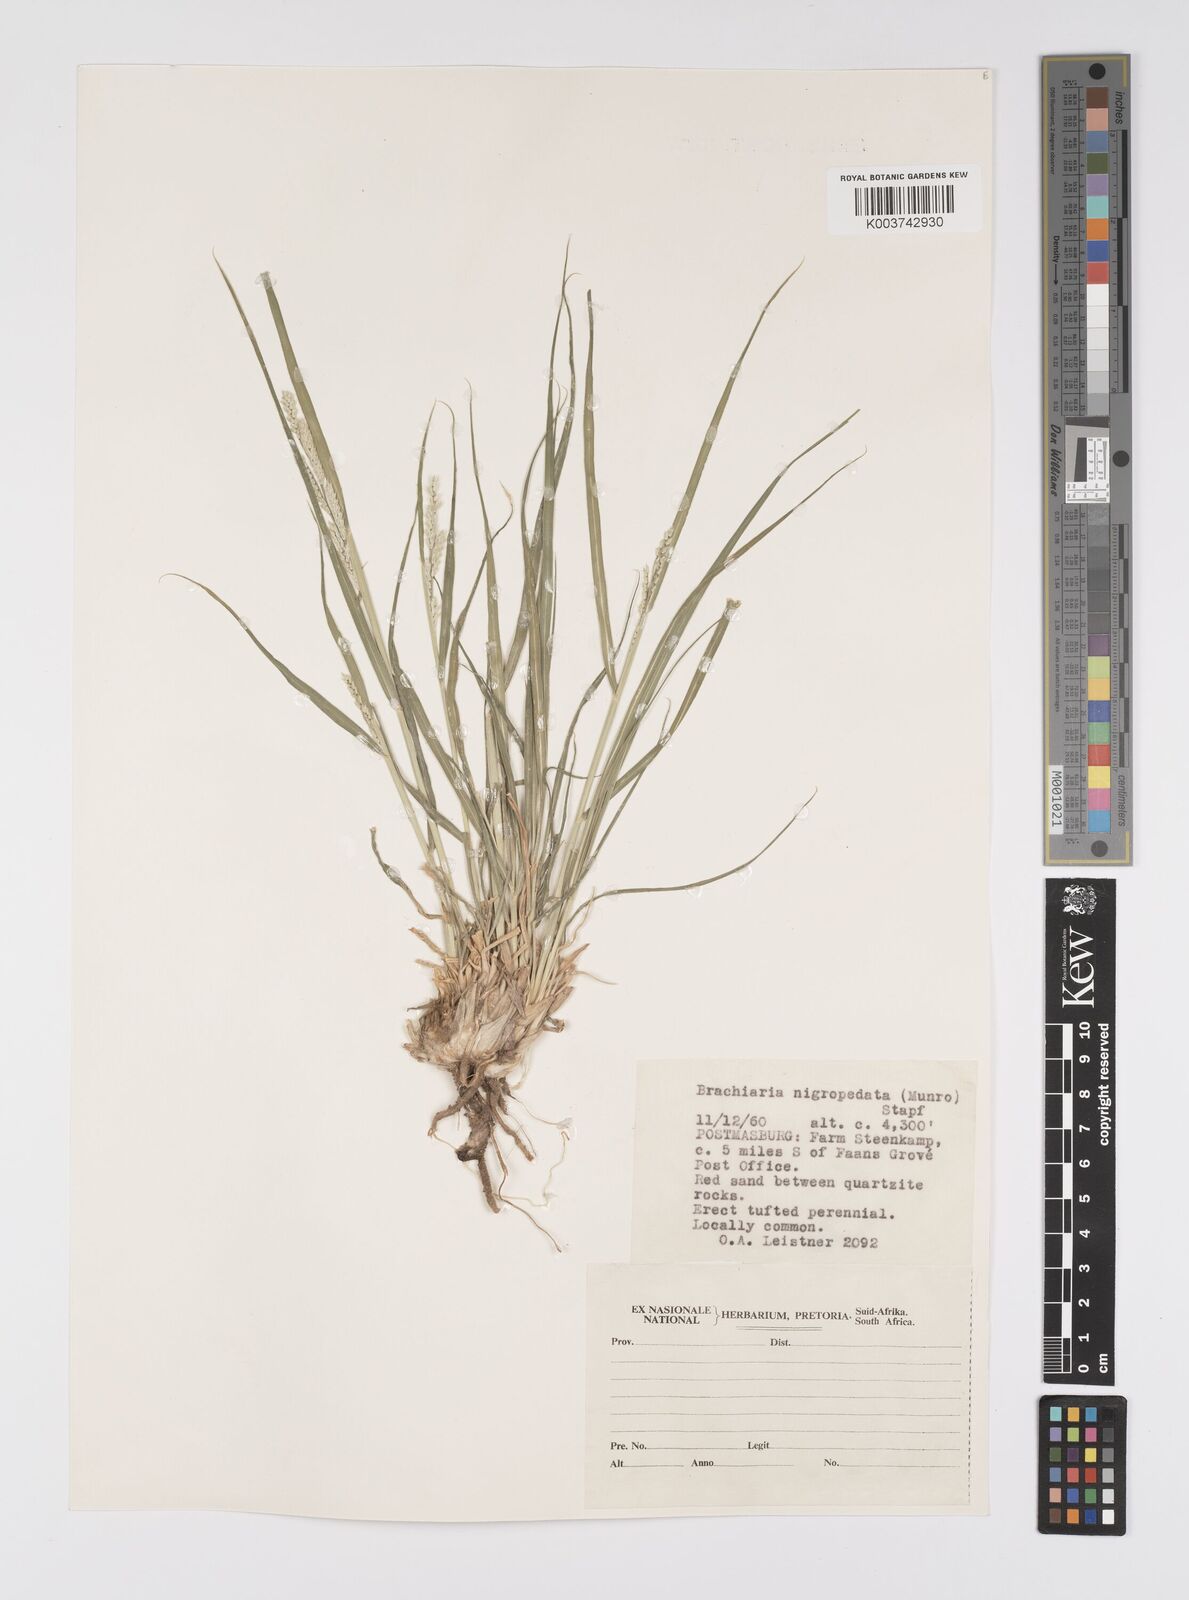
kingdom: Plantae
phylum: Tracheophyta
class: Liliopsida
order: Poales
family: Poaceae
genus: Urochloa
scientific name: Urochloa nigropedata
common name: Spotted signal grass
